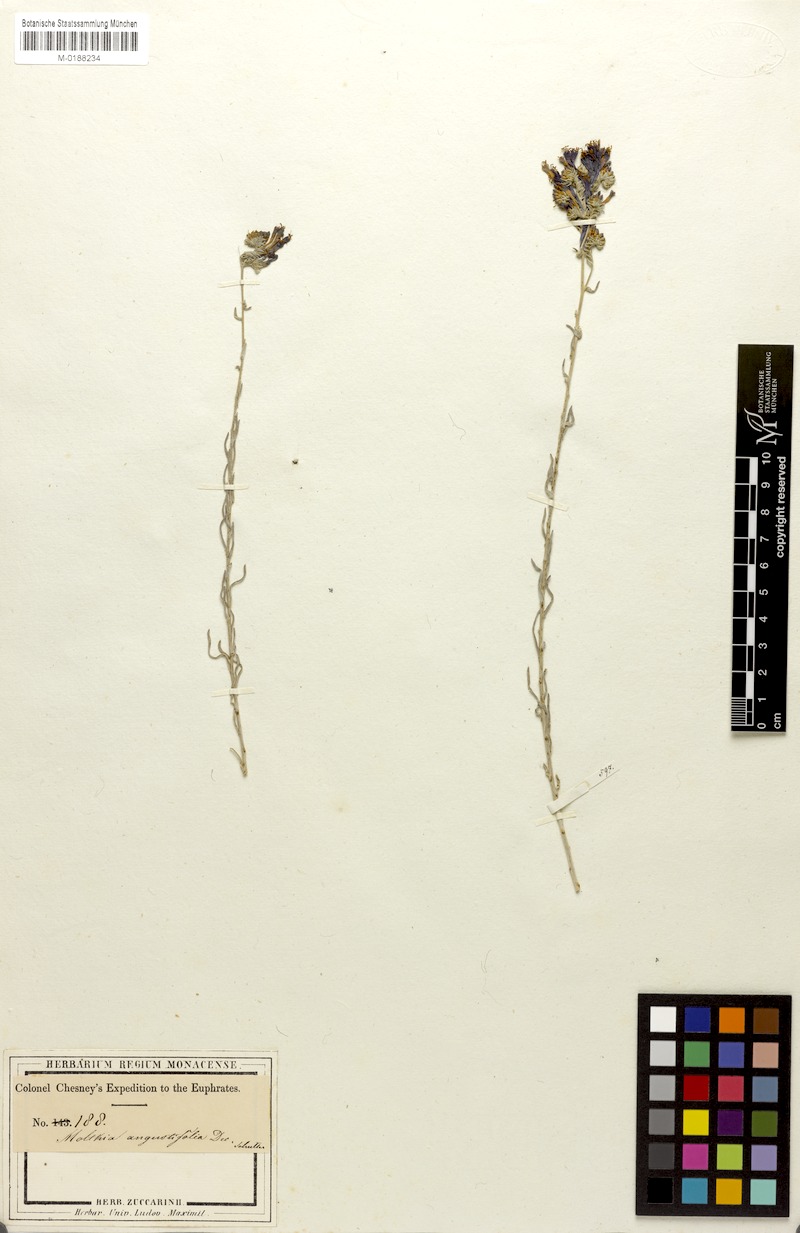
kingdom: Plantae
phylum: Tracheophyta
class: Magnoliopsida
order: Boraginales
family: Boraginaceae
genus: Moltkia
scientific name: Moltkia angustifolia
